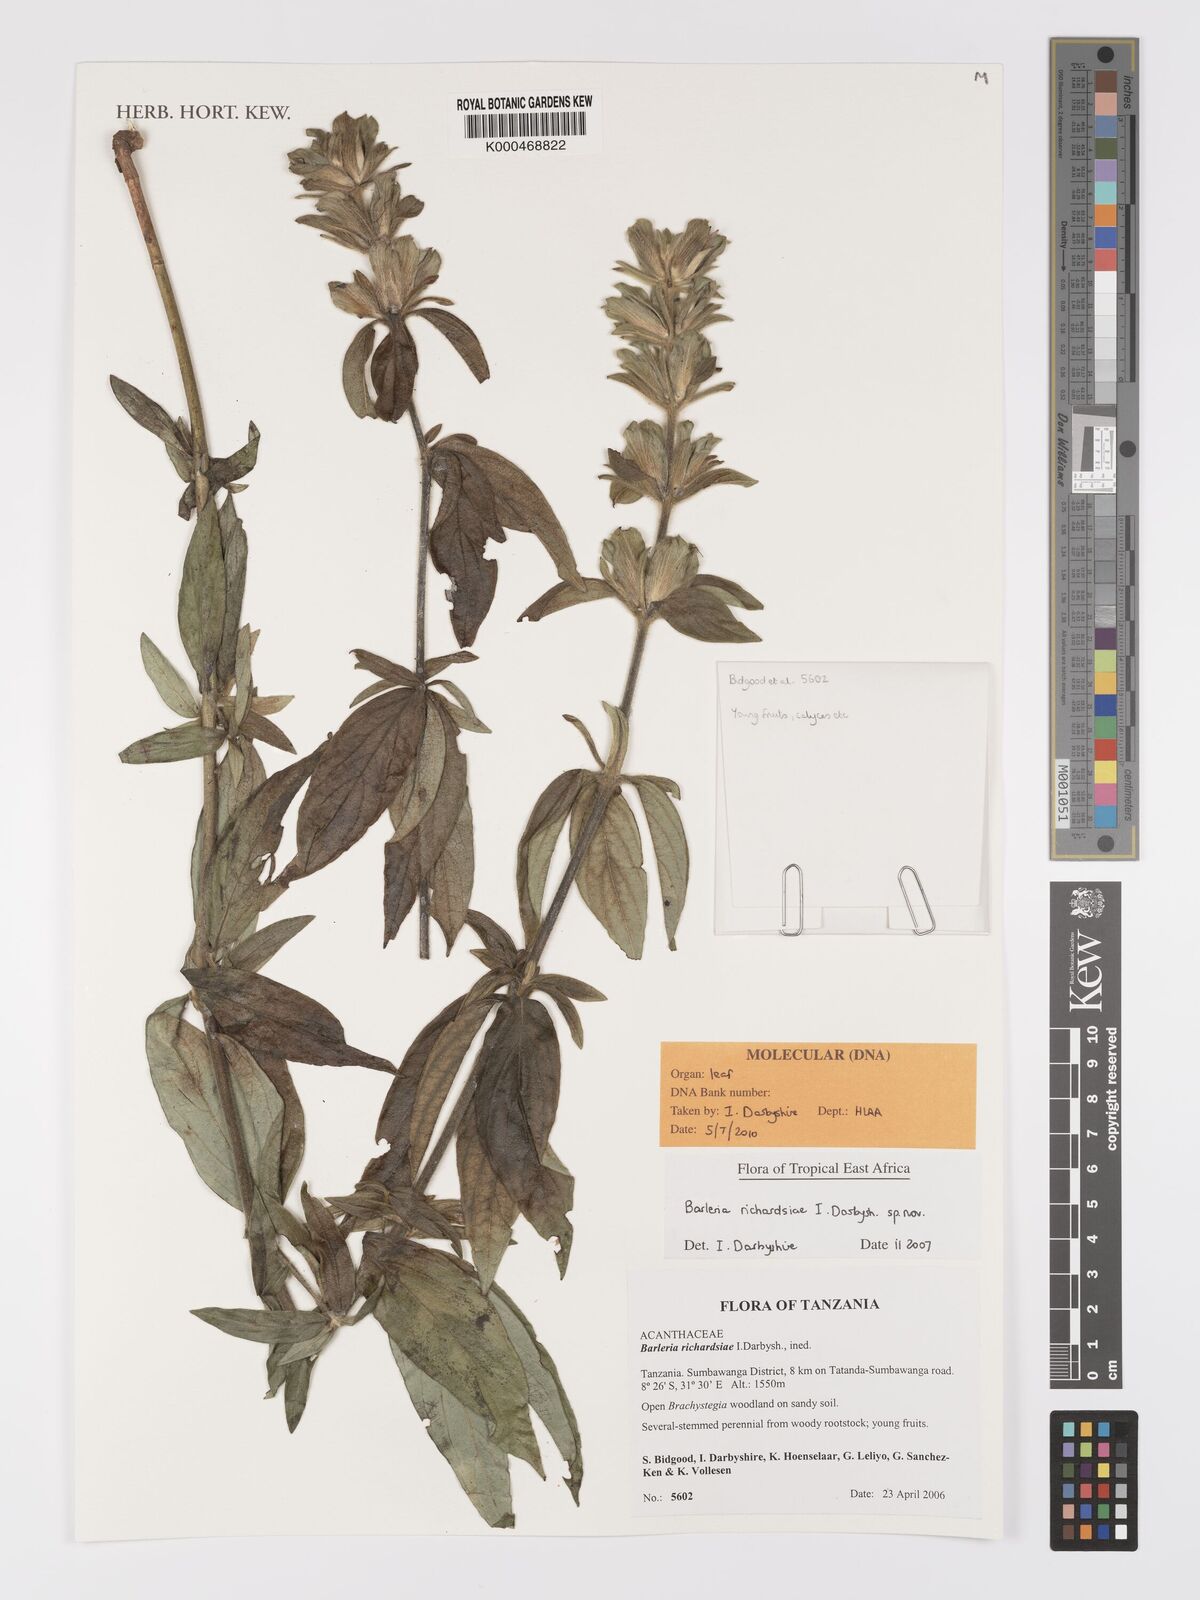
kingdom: Plantae
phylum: Tracheophyta
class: Magnoliopsida
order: Lamiales
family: Acanthaceae
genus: Barleria
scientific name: Barleria richardsiae
